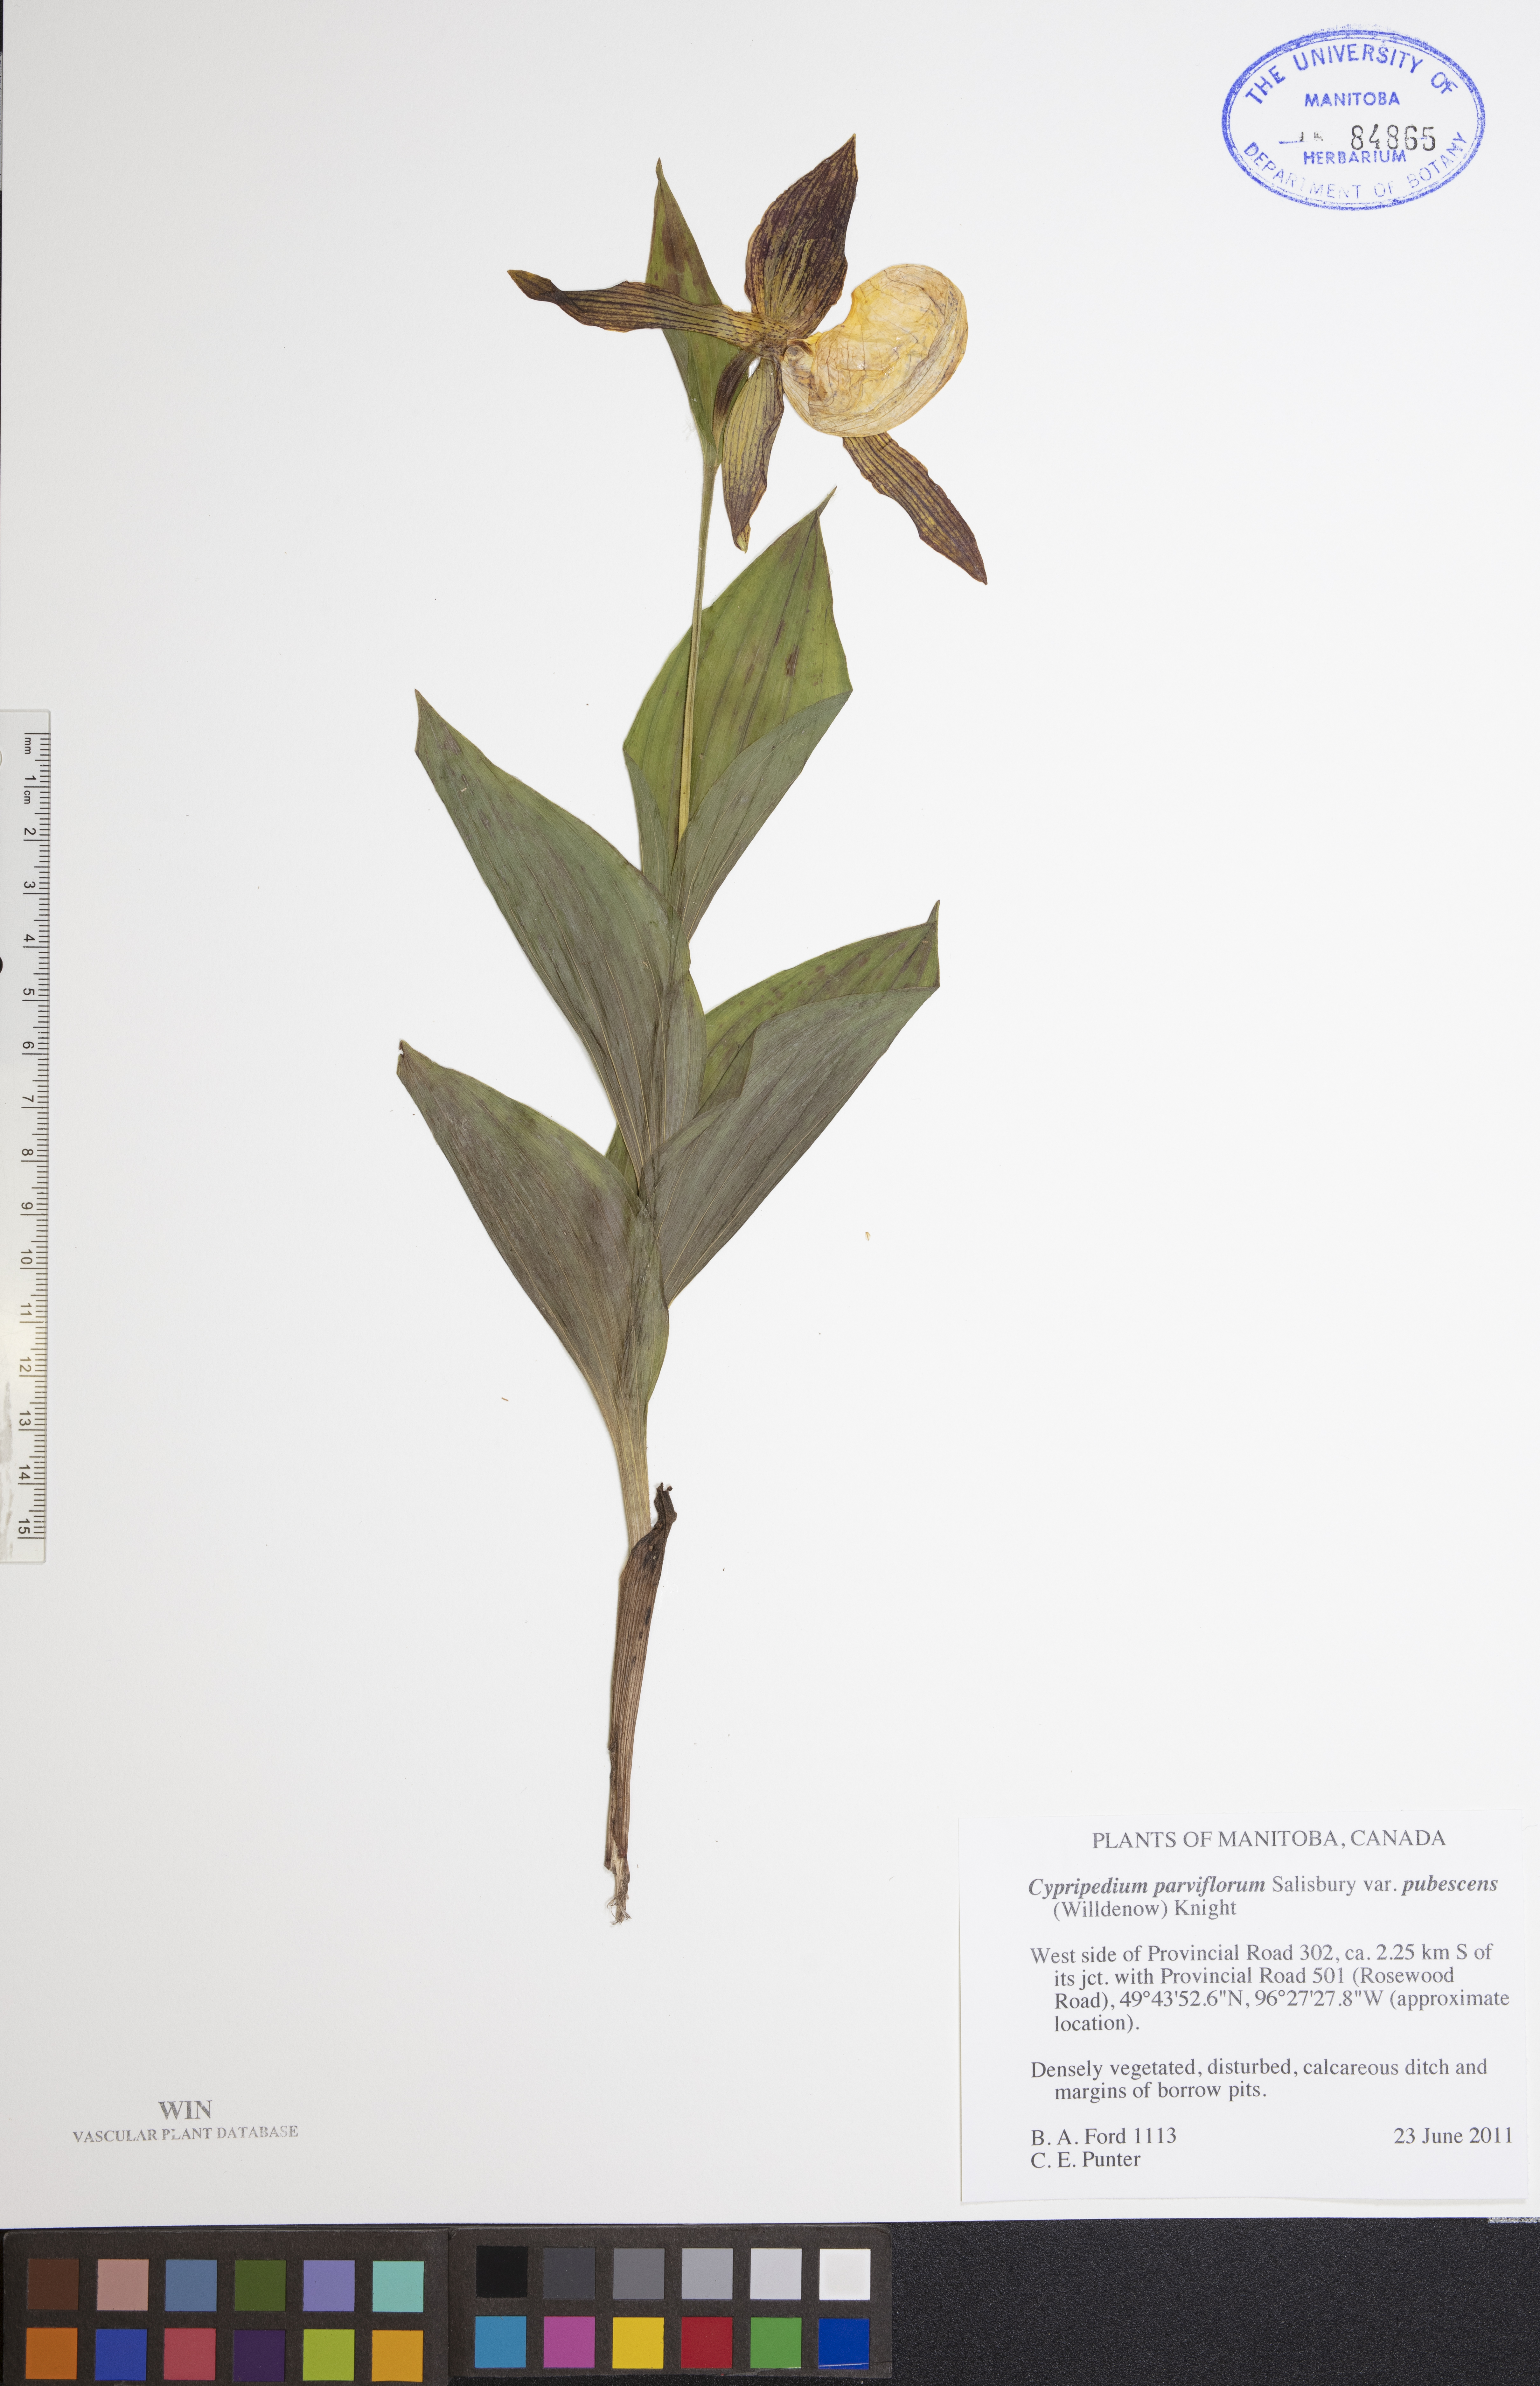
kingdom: Plantae
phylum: Tracheophyta
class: Liliopsida
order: Asparagales
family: Orchidaceae
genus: Cypripedium
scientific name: Cypripedium parviflorum
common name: American yellow lady's-slipper
